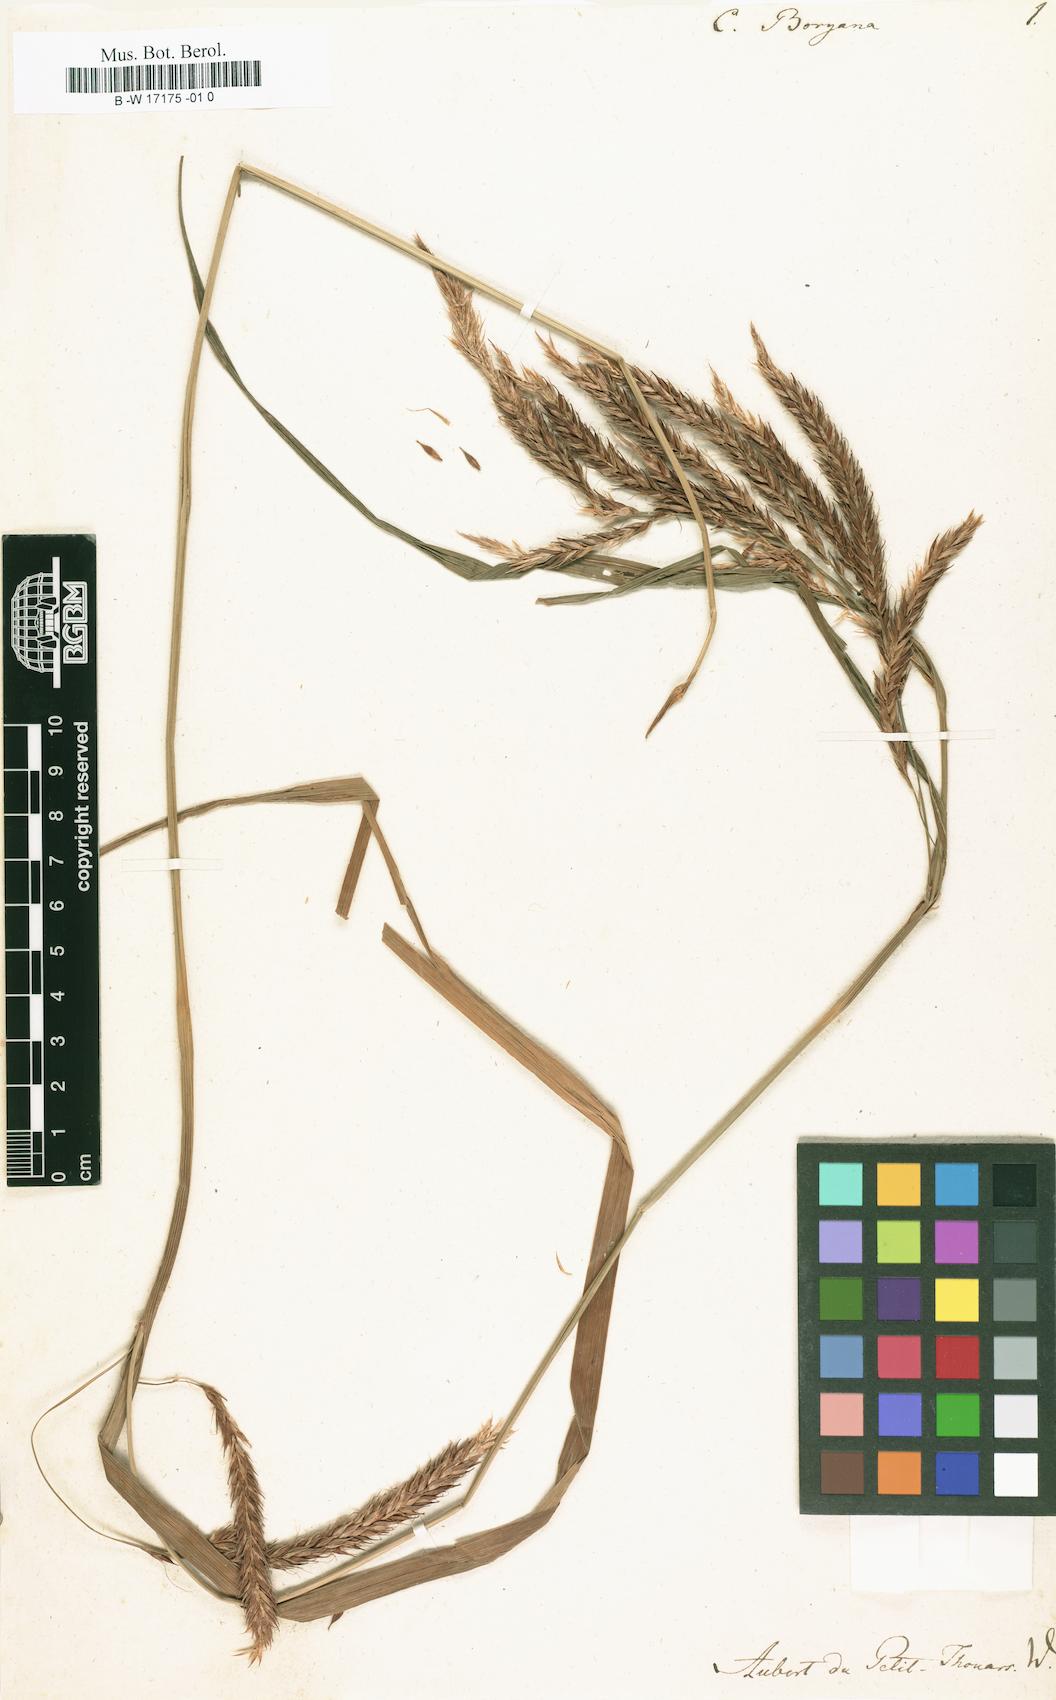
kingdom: Plantae
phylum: Tracheophyta
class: Liliopsida
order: Poales
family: Cyperaceae
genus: Carex
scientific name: Carex boryana
